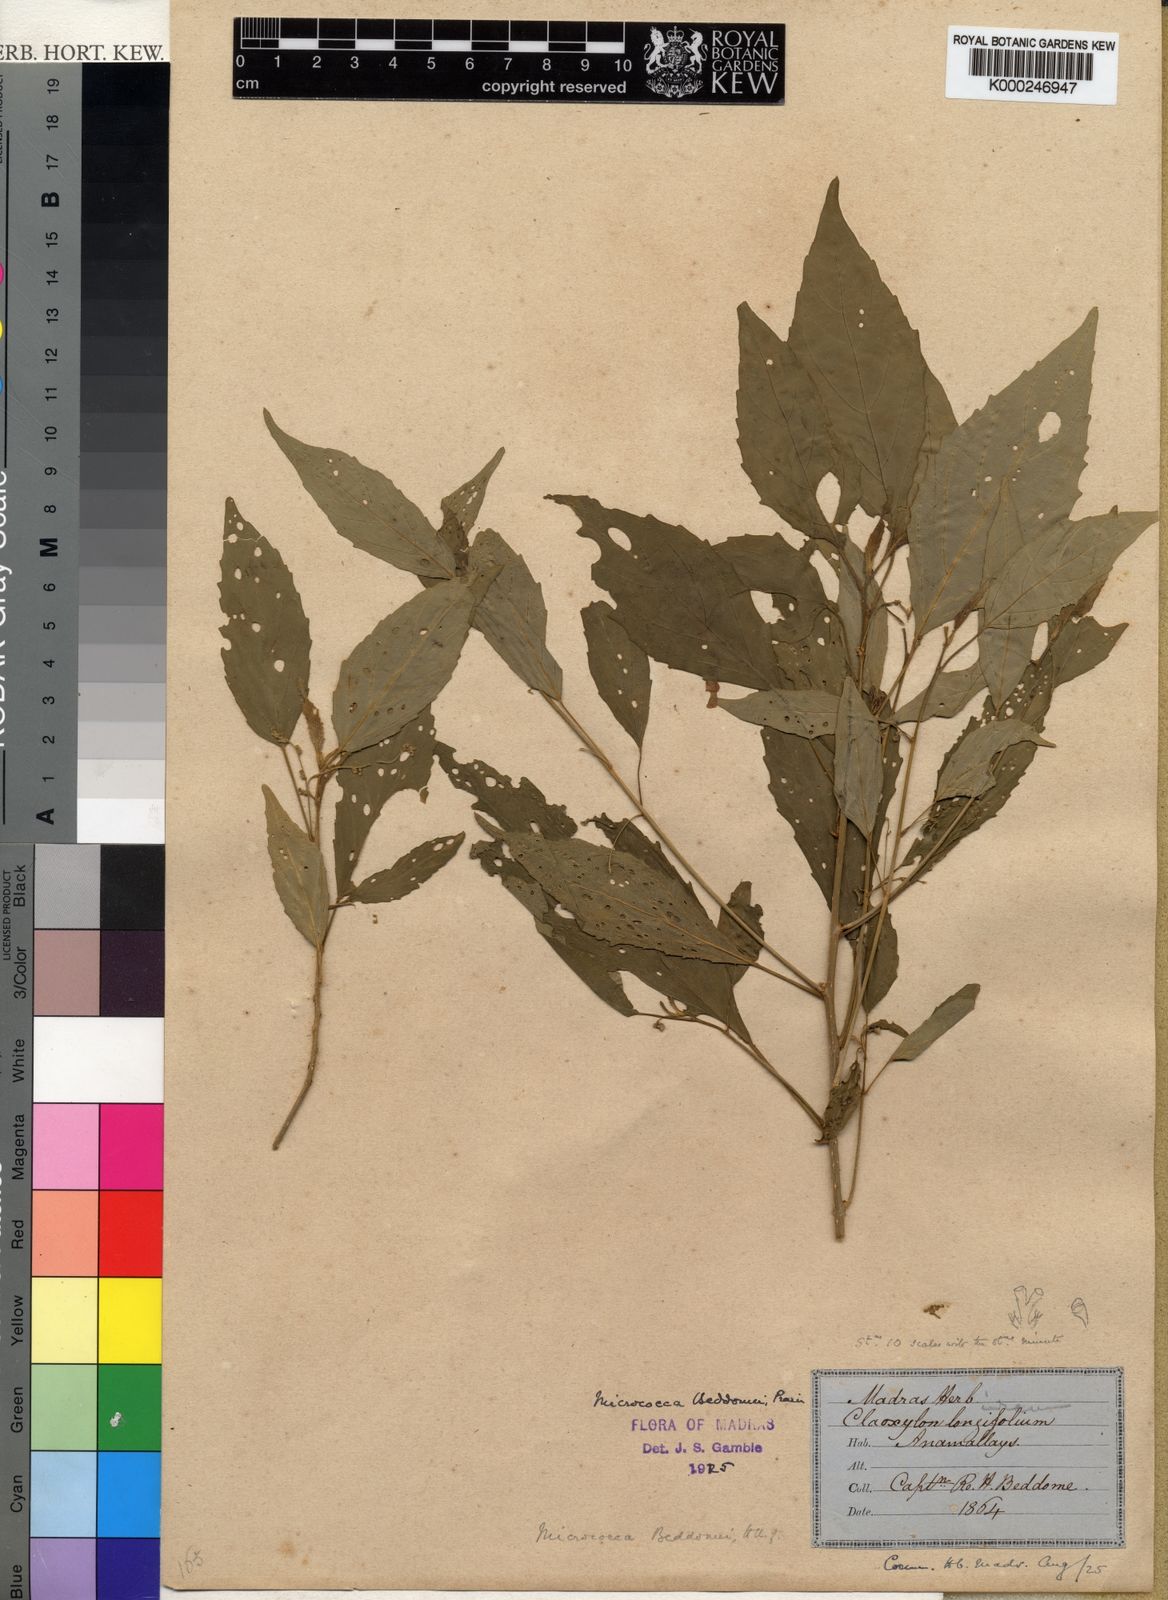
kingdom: Plantae
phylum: Tracheophyta
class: Magnoliopsida
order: Malpighiales
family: Euphorbiaceae
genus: Micrococca
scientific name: Micrococca beddomei
